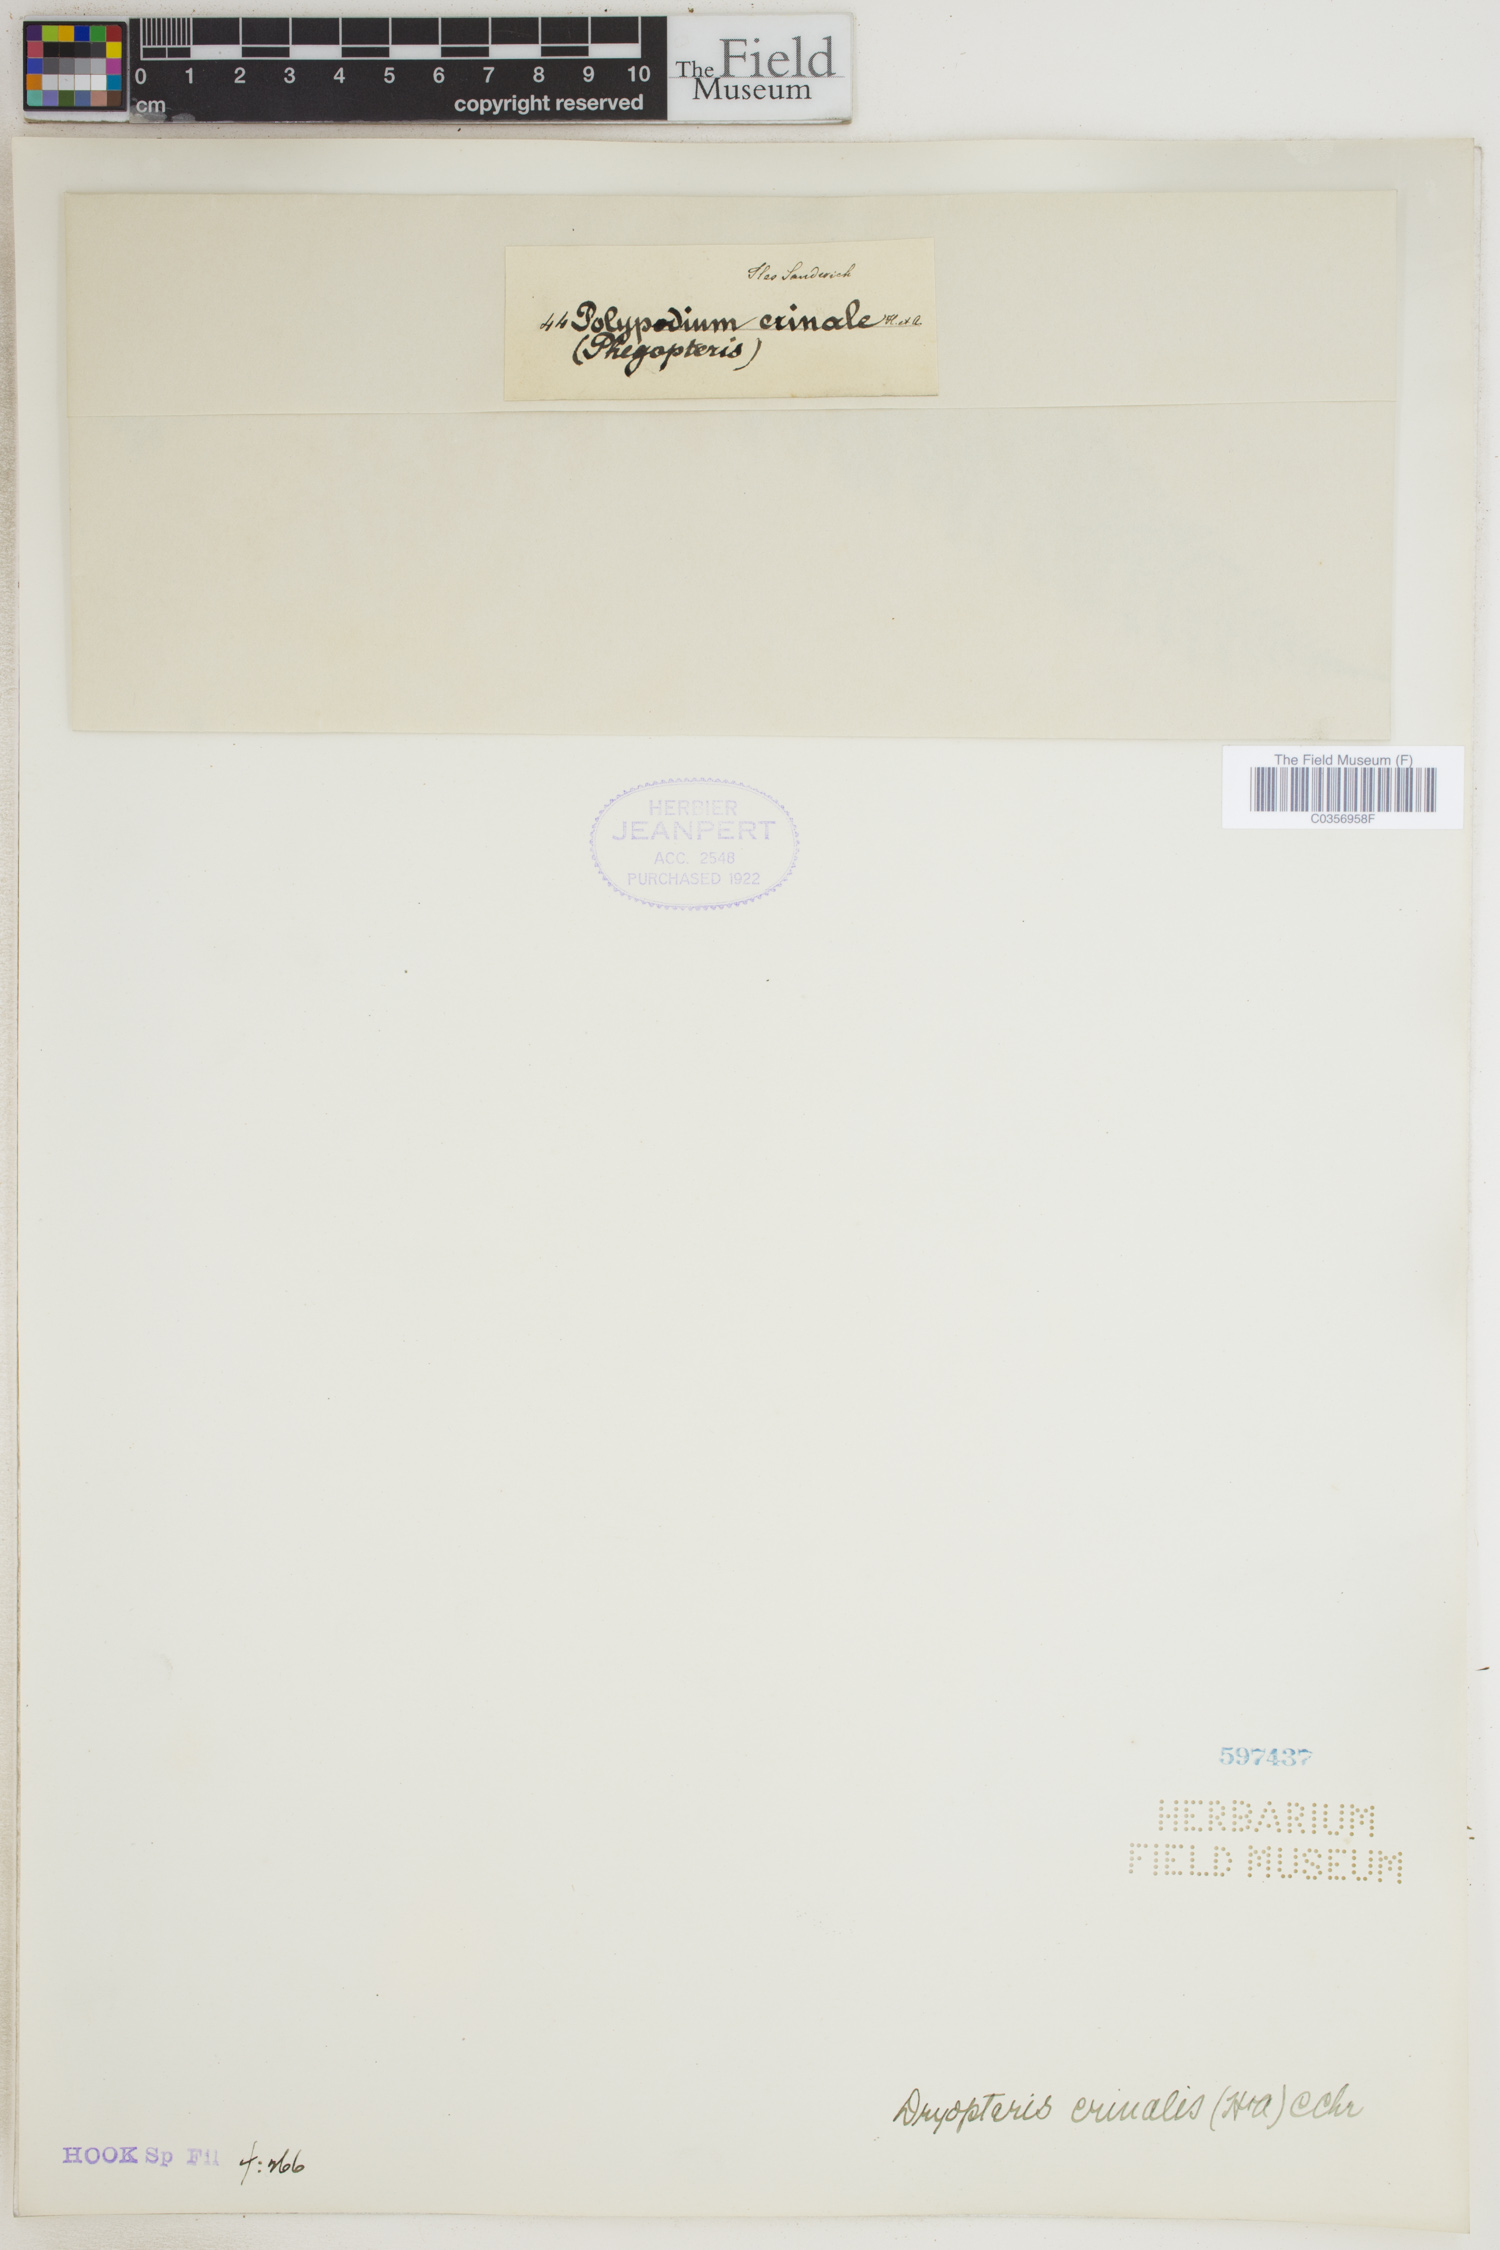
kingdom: Plantae
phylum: Tracheophyta
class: Polypodiopsida
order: Polypodiales
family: Dryopteridaceae
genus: Dryopteris
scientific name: Dryopteris crinalis
